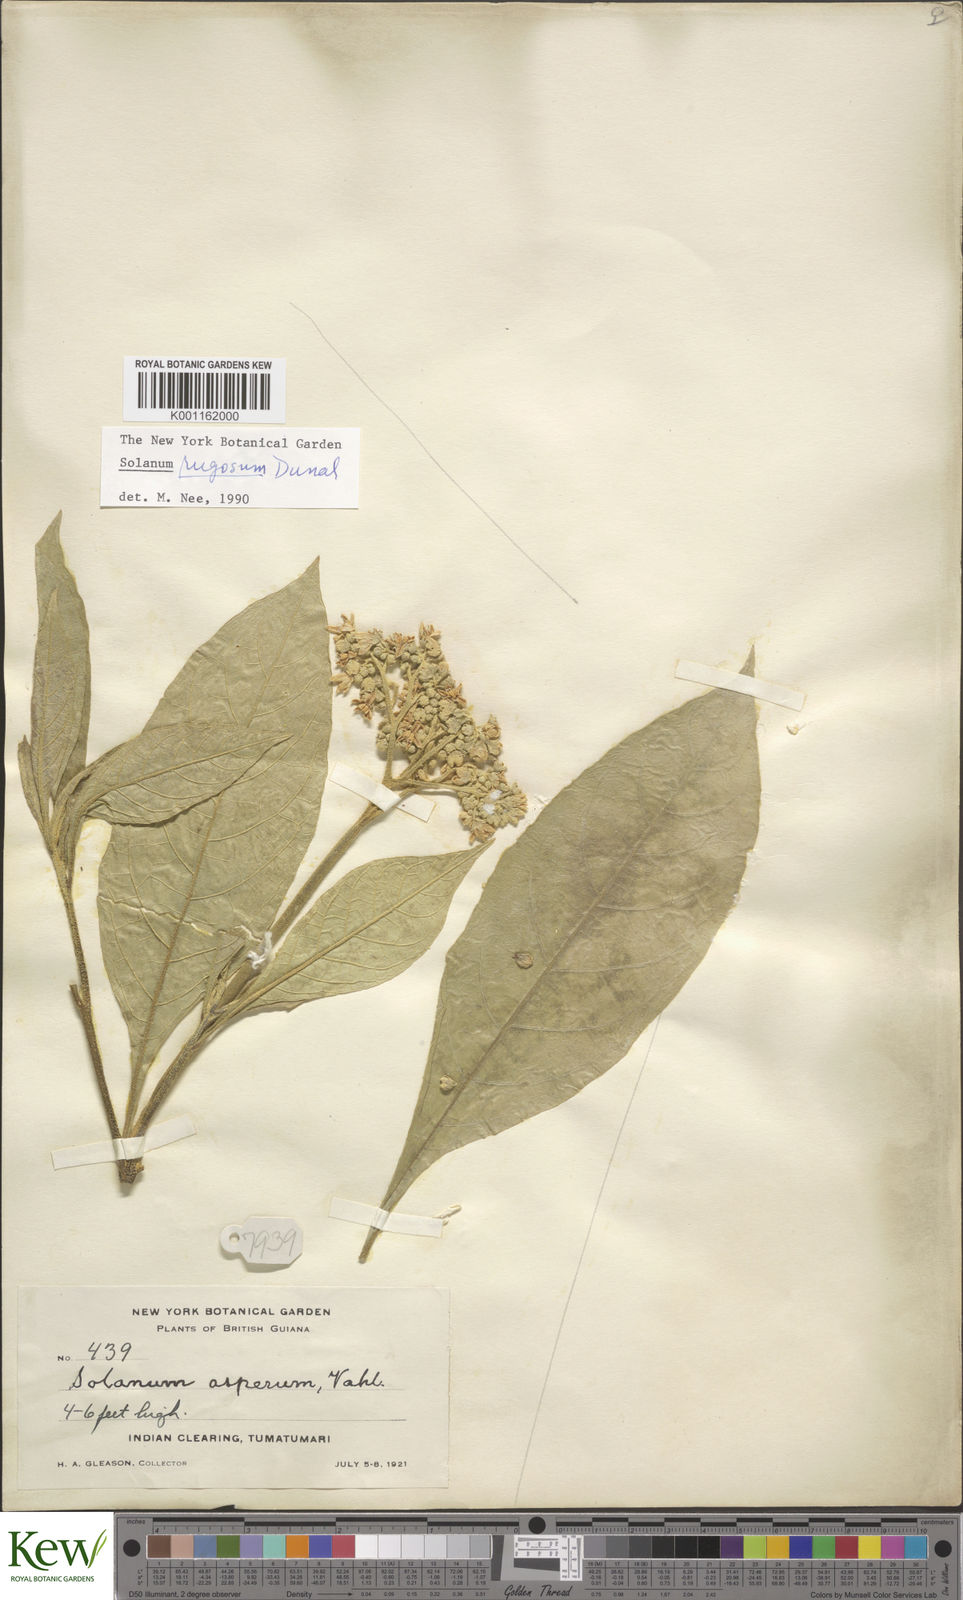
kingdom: Plantae
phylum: Tracheophyta
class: Magnoliopsida
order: Solanales
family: Solanaceae
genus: Solanum
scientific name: Solanum rugosum
